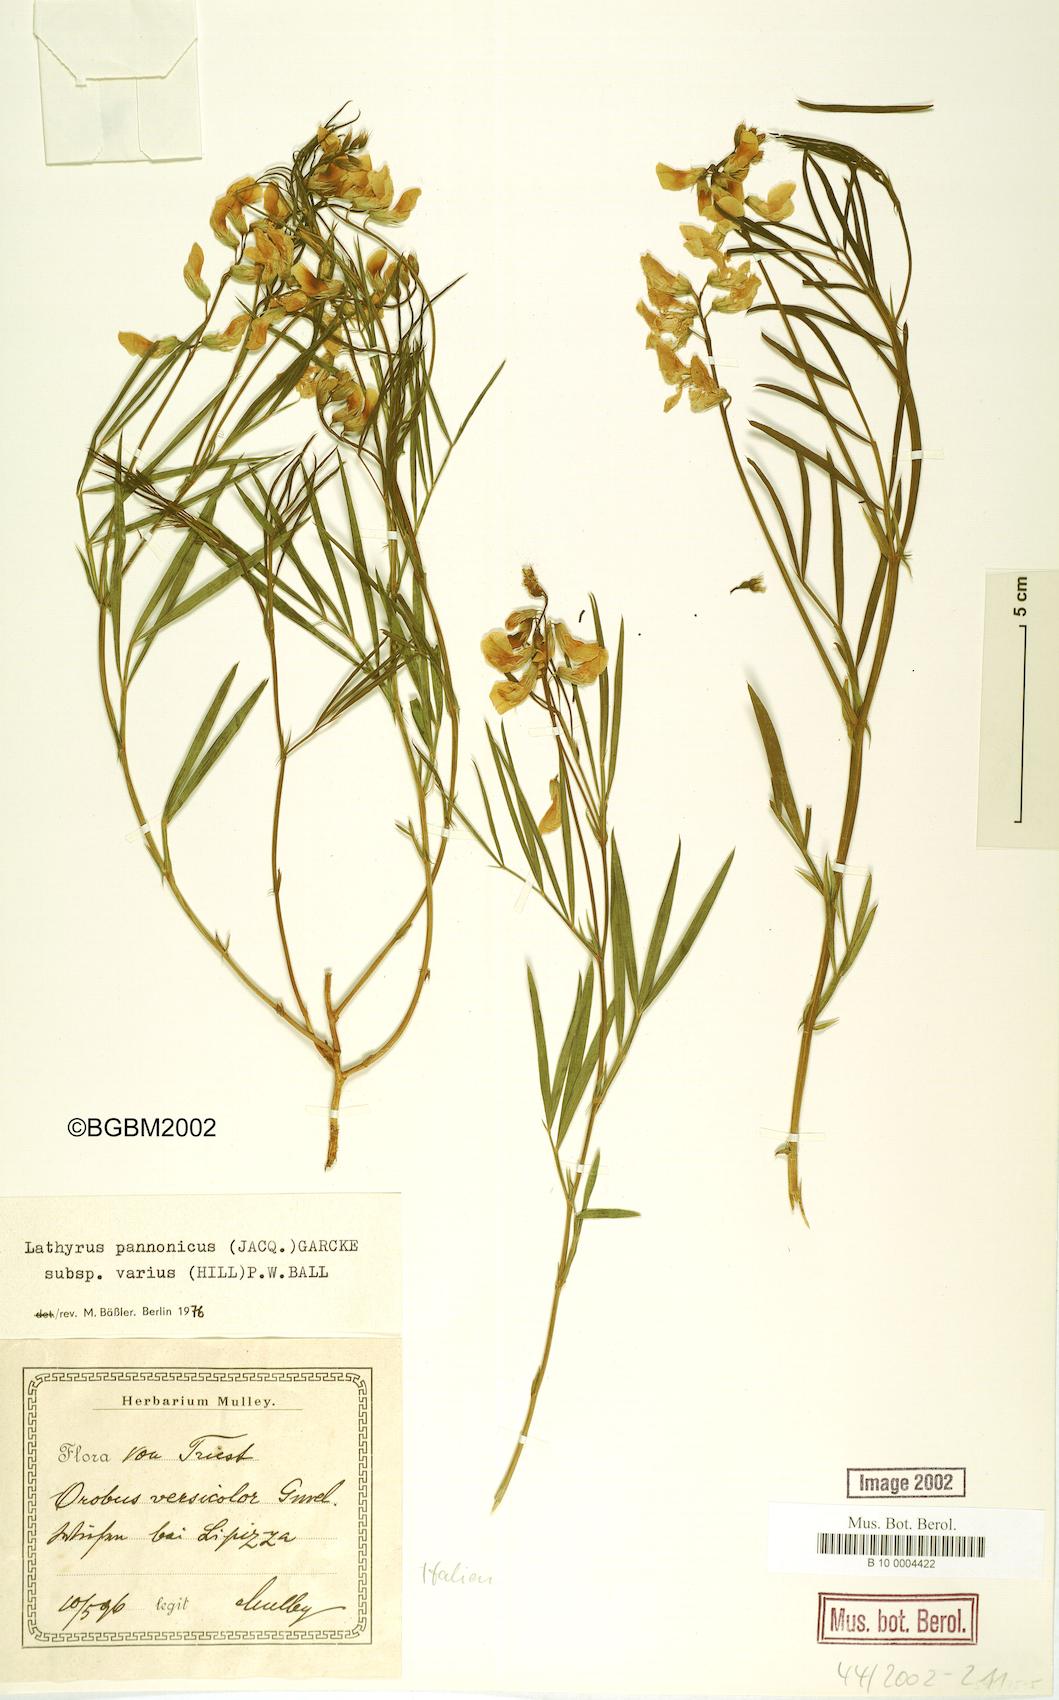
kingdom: Plantae
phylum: Tracheophyta
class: Magnoliopsida
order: Fabales
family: Fabaceae
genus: Lathyrus
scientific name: Lathyrus pannonicus
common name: Pea
